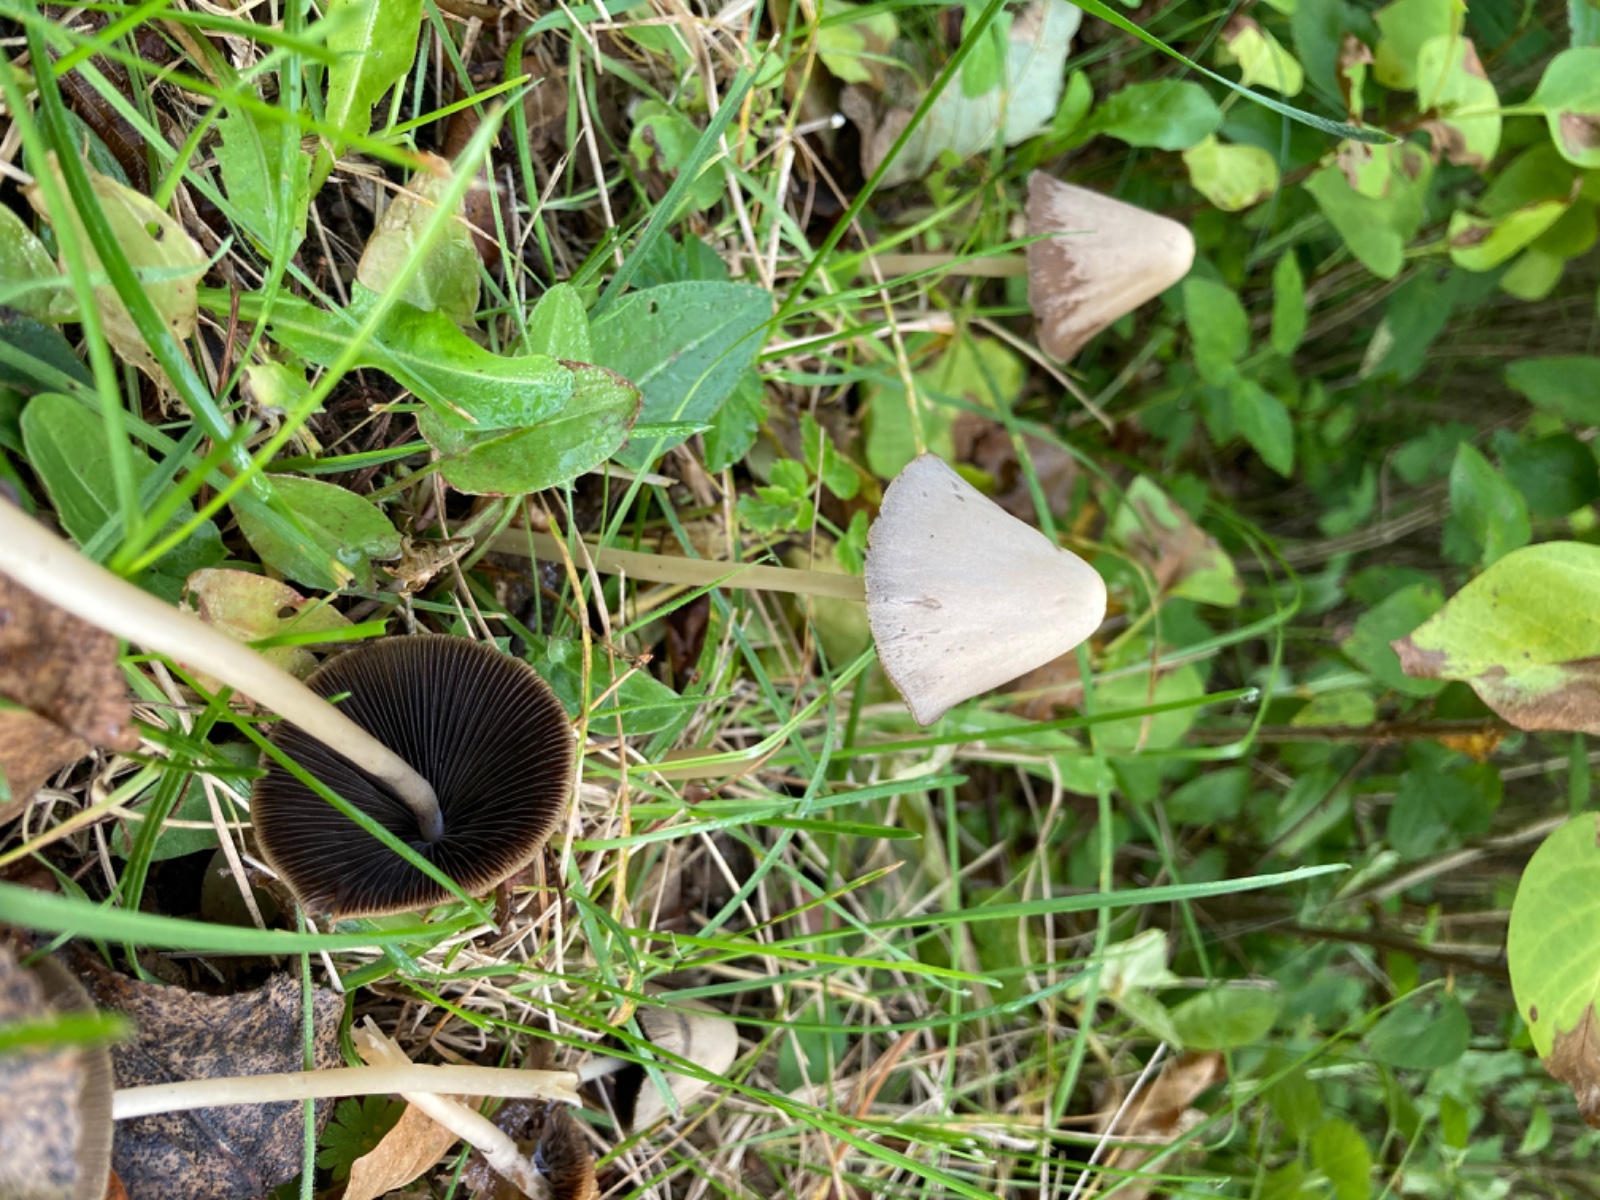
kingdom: Fungi
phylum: Basidiomycota
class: Agaricomycetes
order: Agaricales
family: Psathyrellaceae
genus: Parasola
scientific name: Parasola conopilea
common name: kegle-hjulhat
